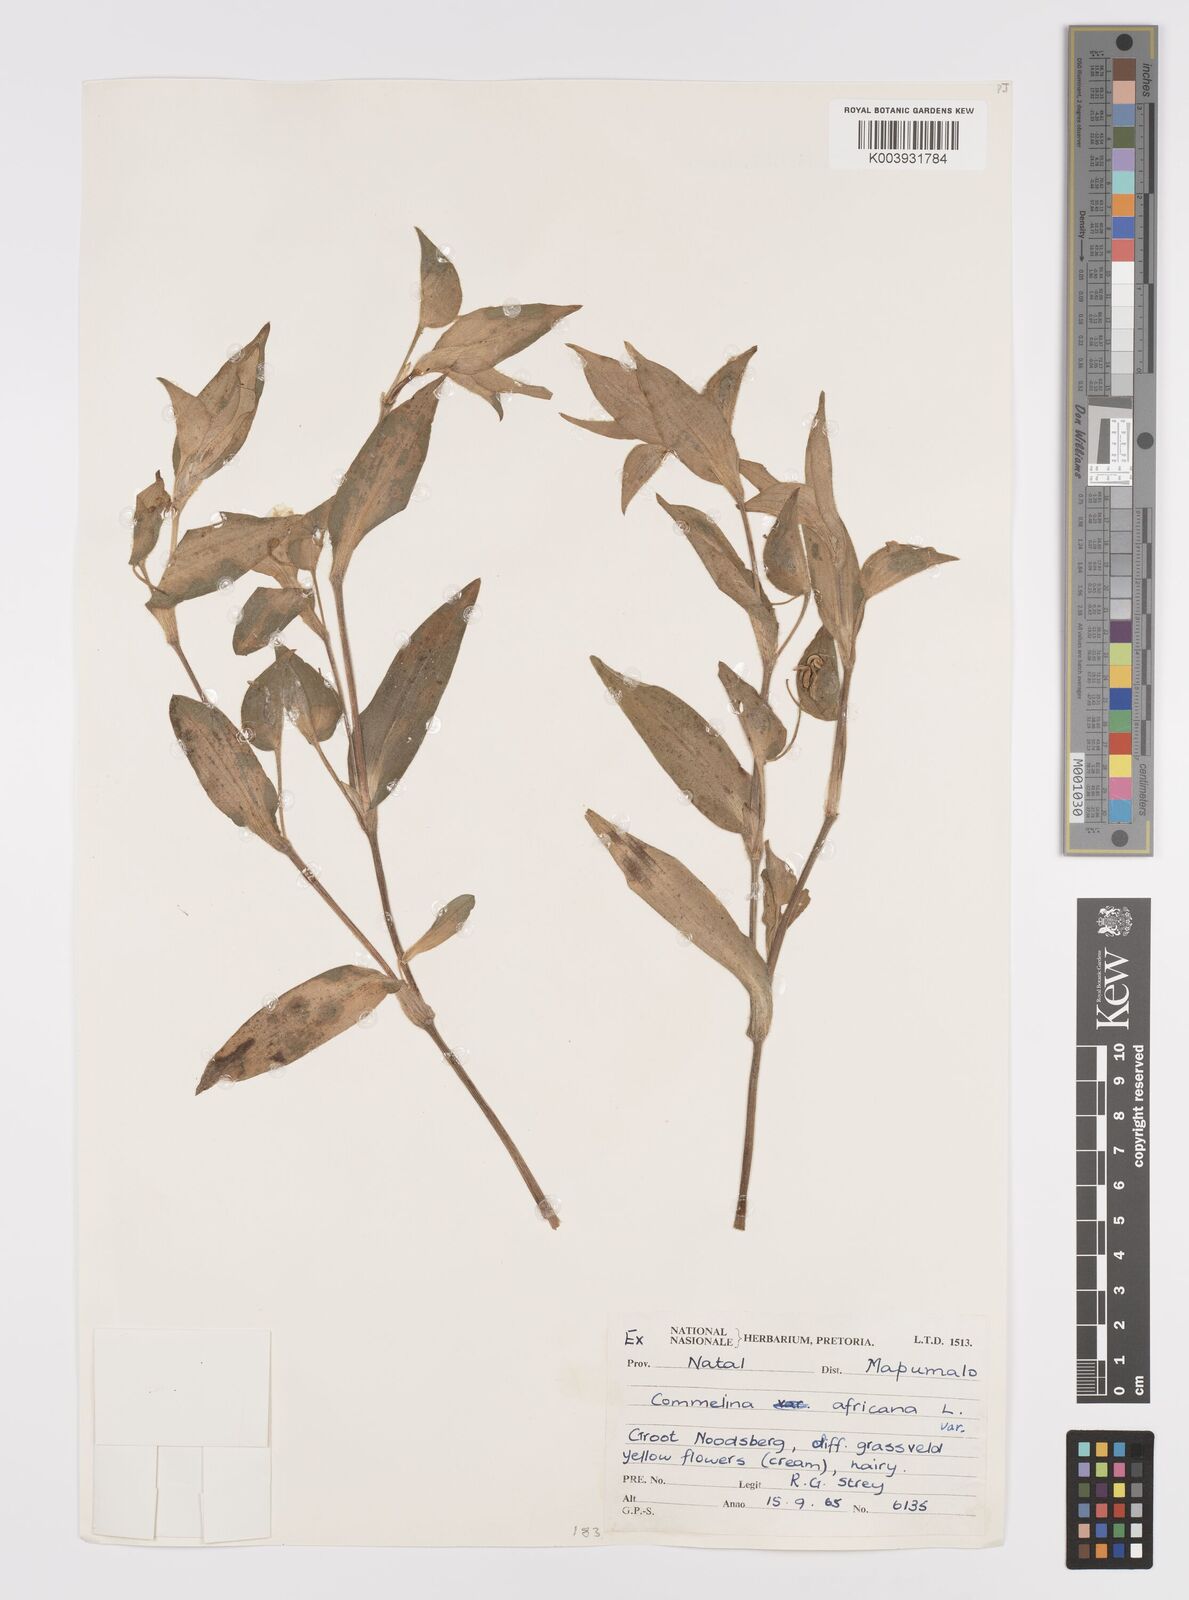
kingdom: Plantae
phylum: Tracheophyta
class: Liliopsida
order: Commelinales
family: Commelinaceae
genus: Commelina
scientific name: Commelina africana
